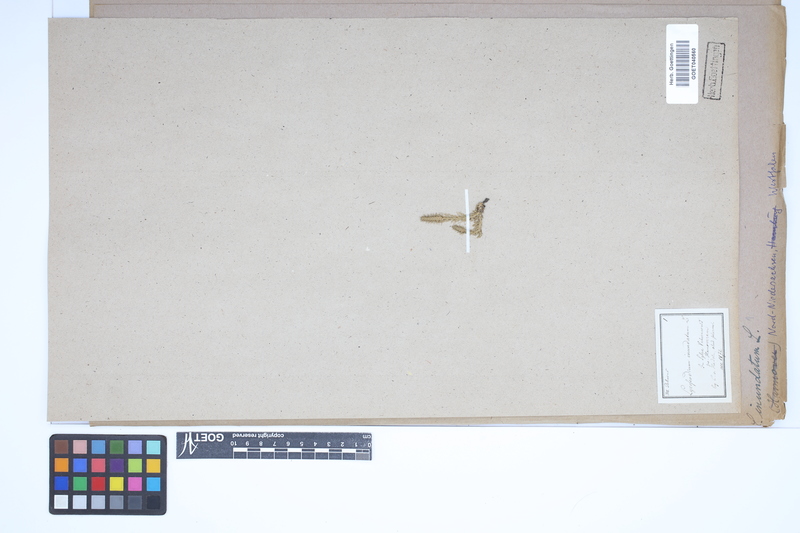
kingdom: Plantae
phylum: Tracheophyta
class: Lycopodiopsida
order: Lycopodiales
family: Lycopodiaceae
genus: Lycopodiella
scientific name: Lycopodiella inundata
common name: Marsh clubmoss
